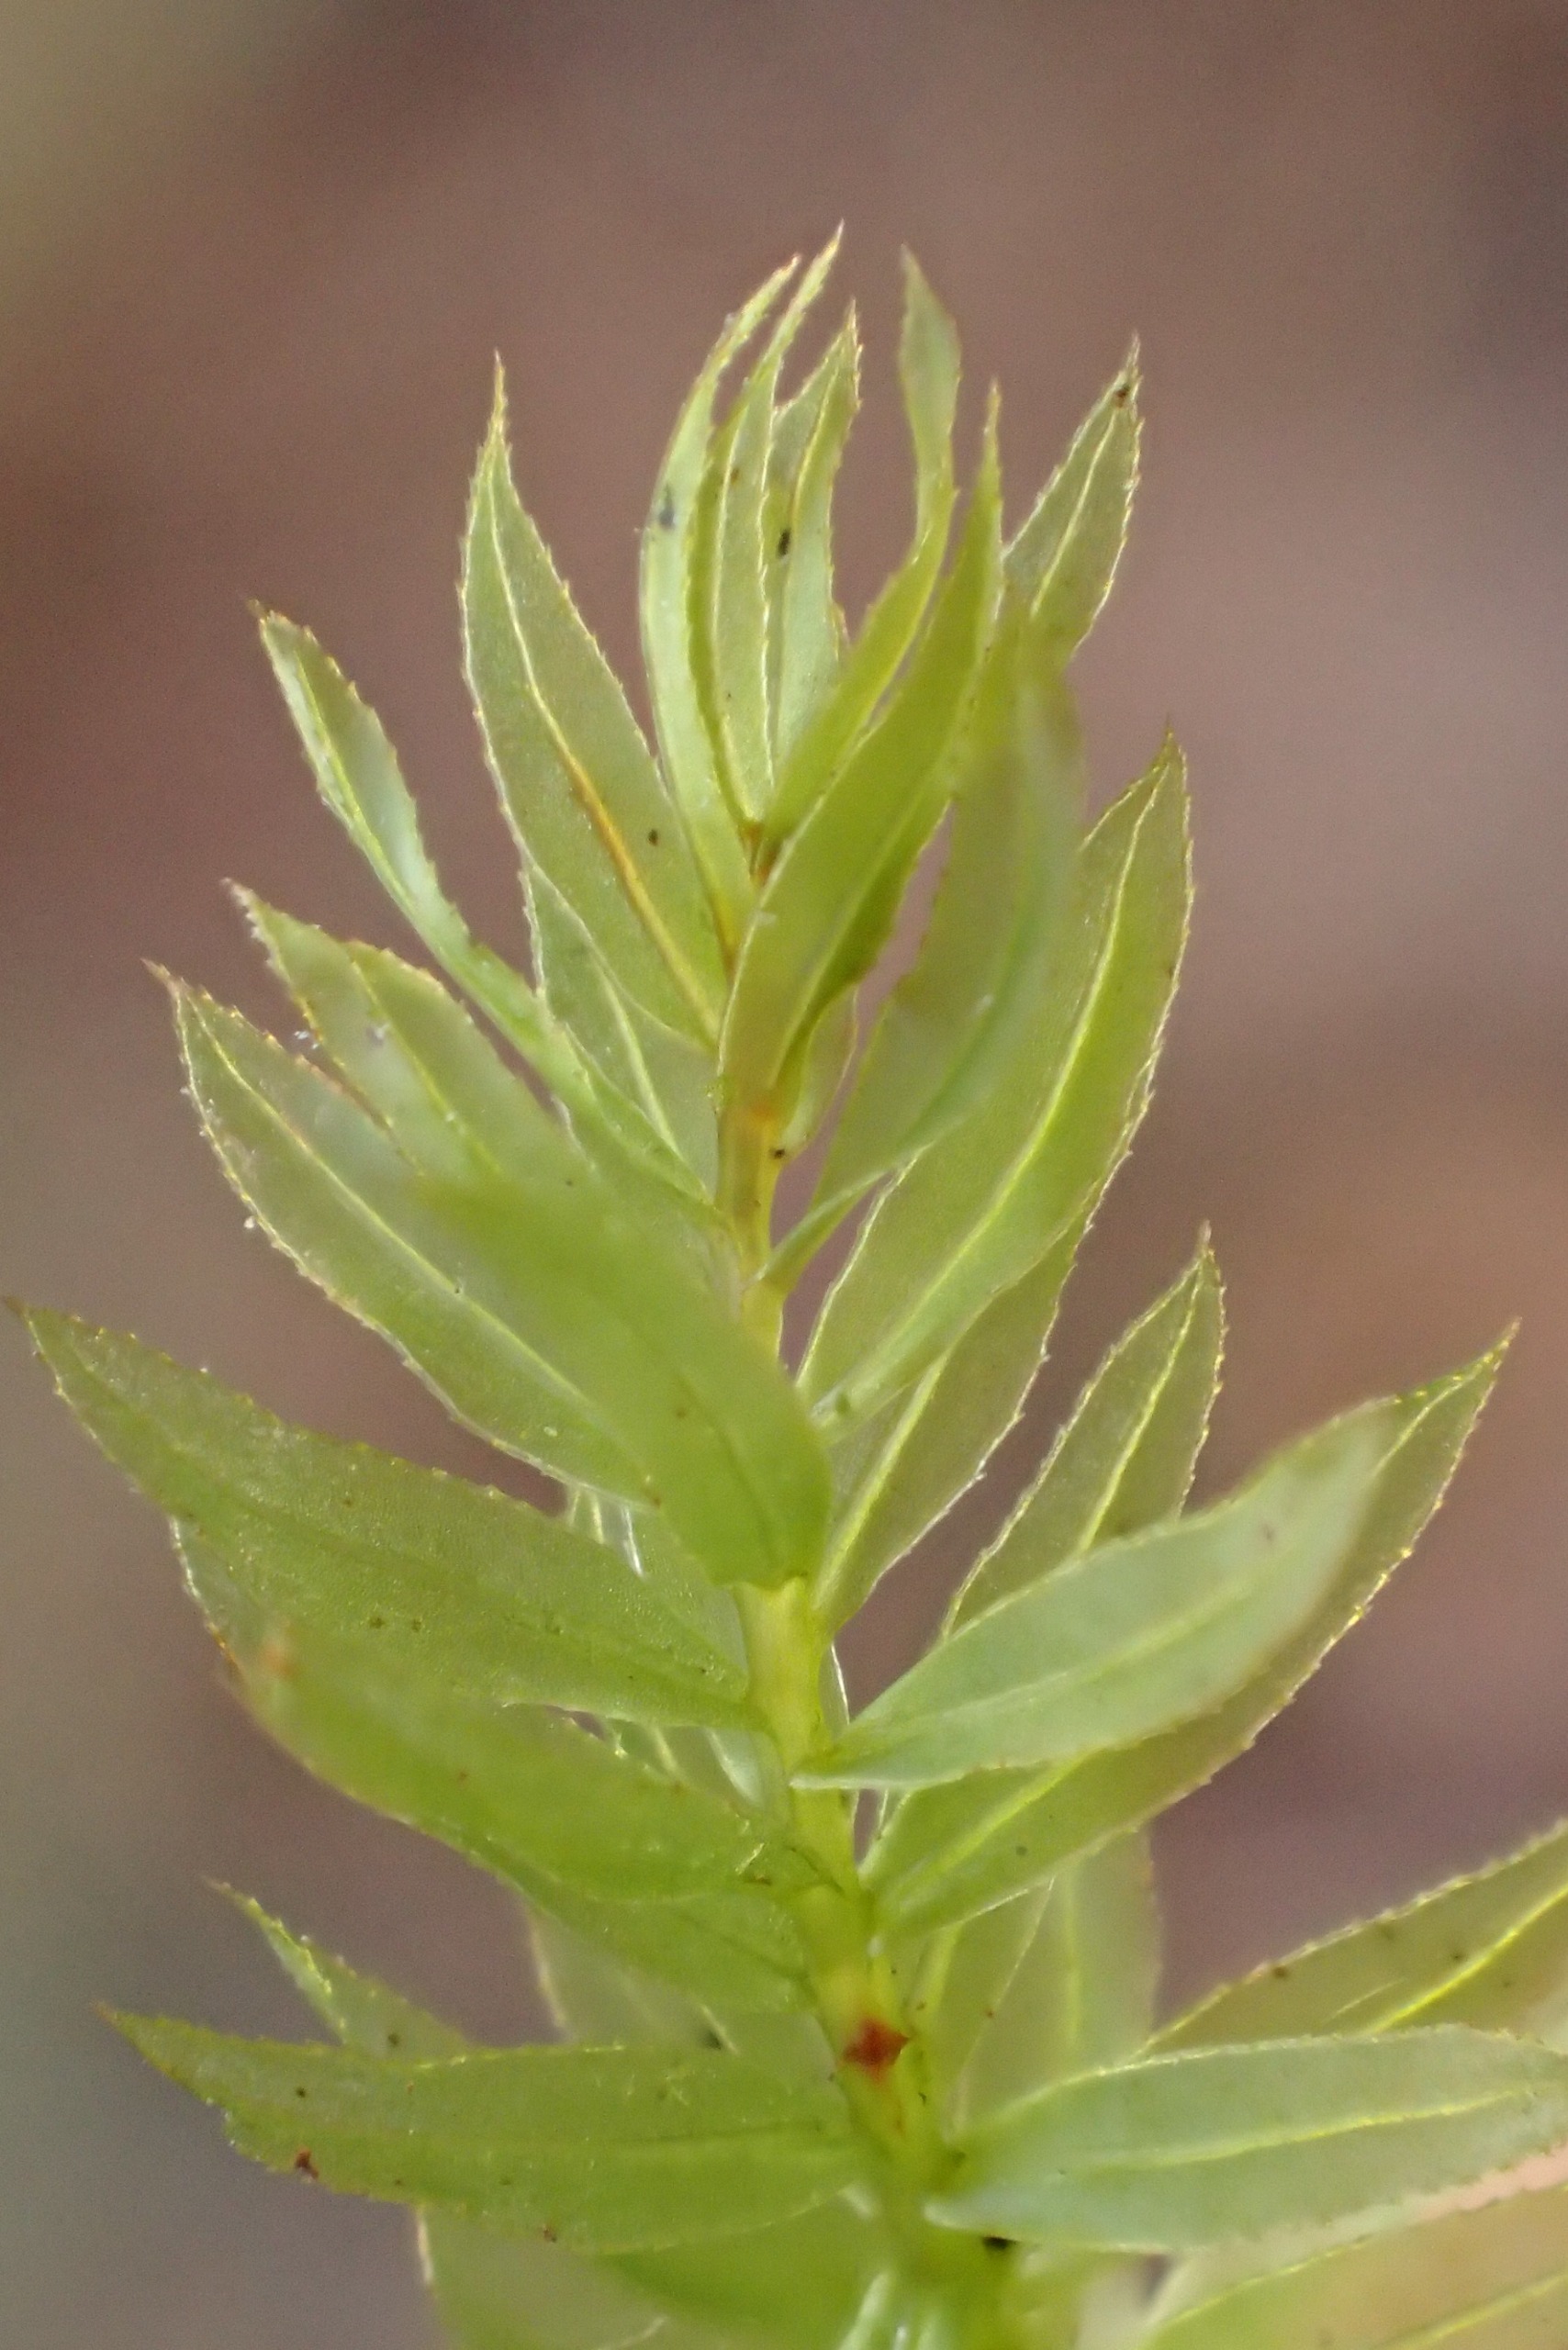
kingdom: Plantae
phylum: Bryophyta
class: Bryopsida
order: Bryales
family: Mniaceae
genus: Mnium
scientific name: Mnium hornum
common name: Brunfiltet stjernemos
